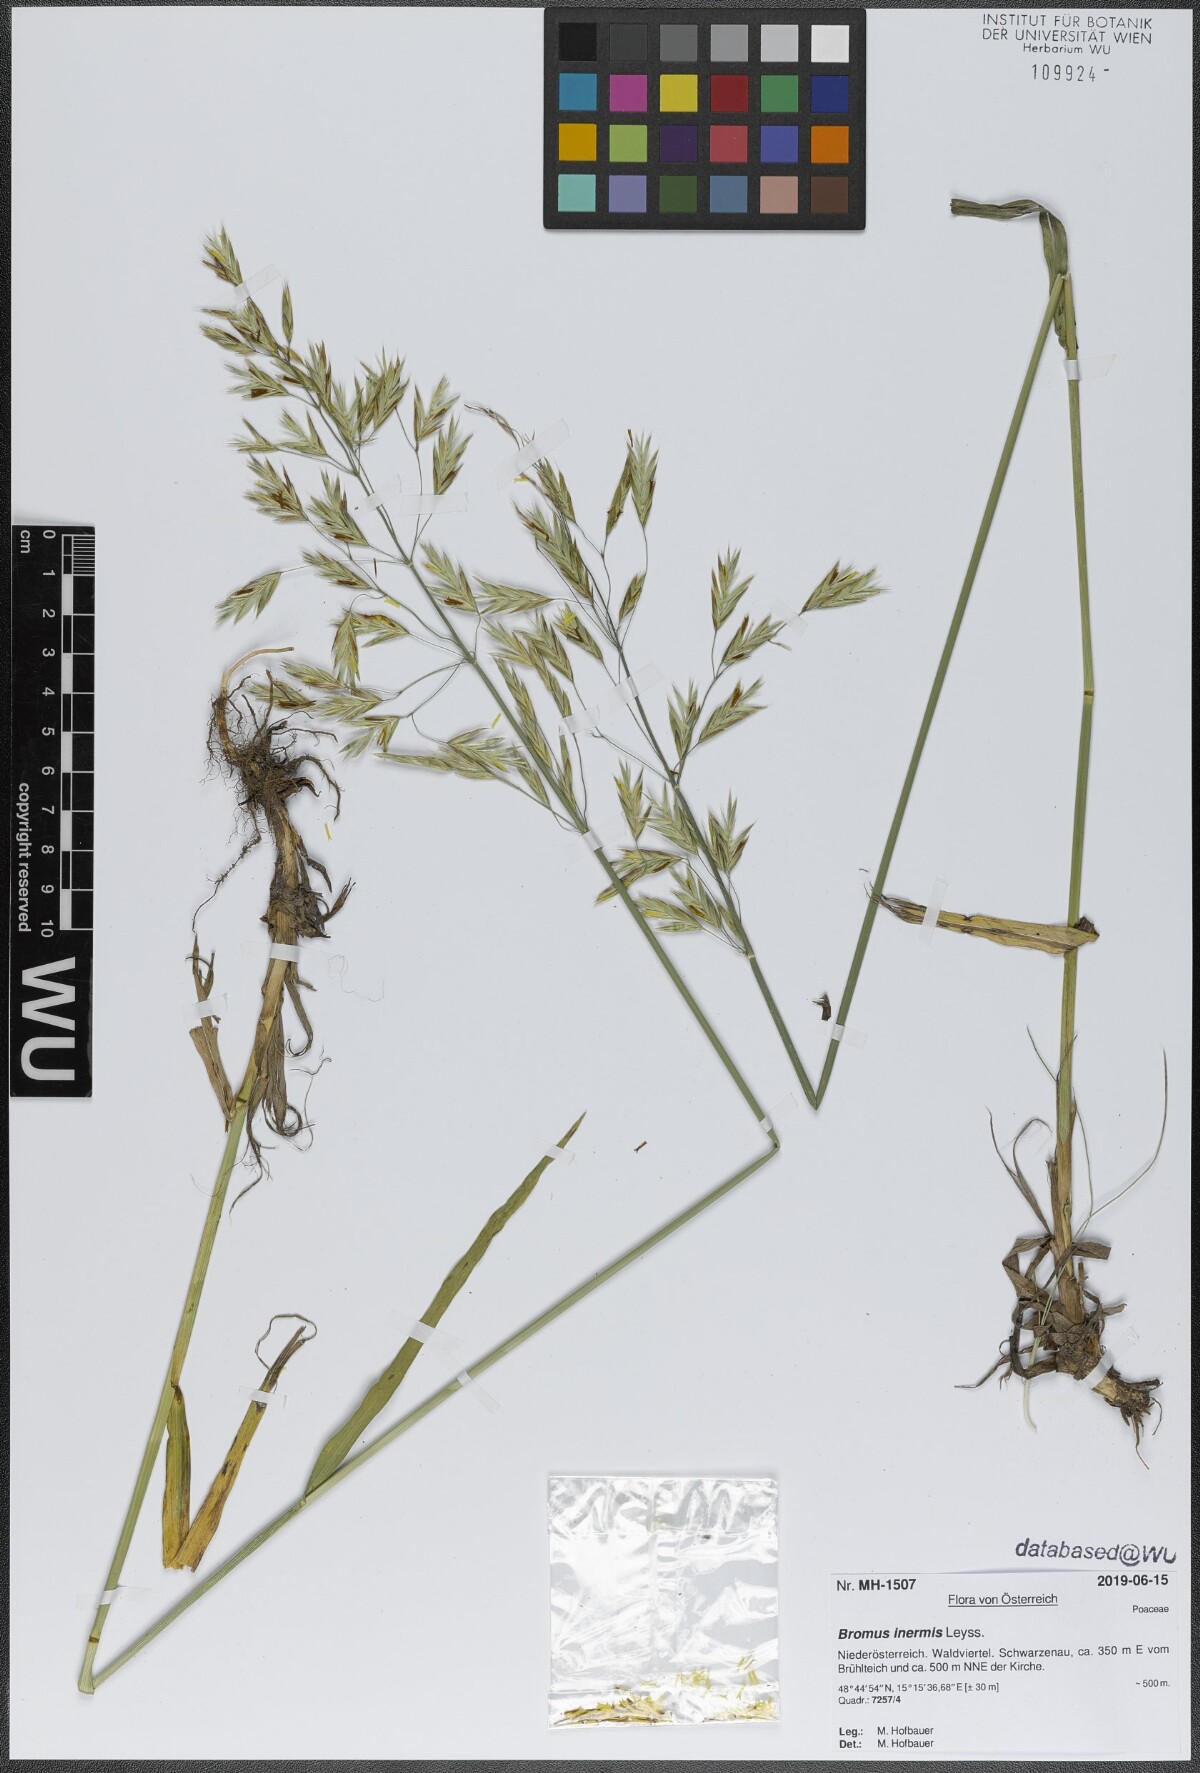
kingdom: Plantae
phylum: Tracheophyta
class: Liliopsida
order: Poales
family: Poaceae
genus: Bromus
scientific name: Bromus inermis
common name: Smooth brome
